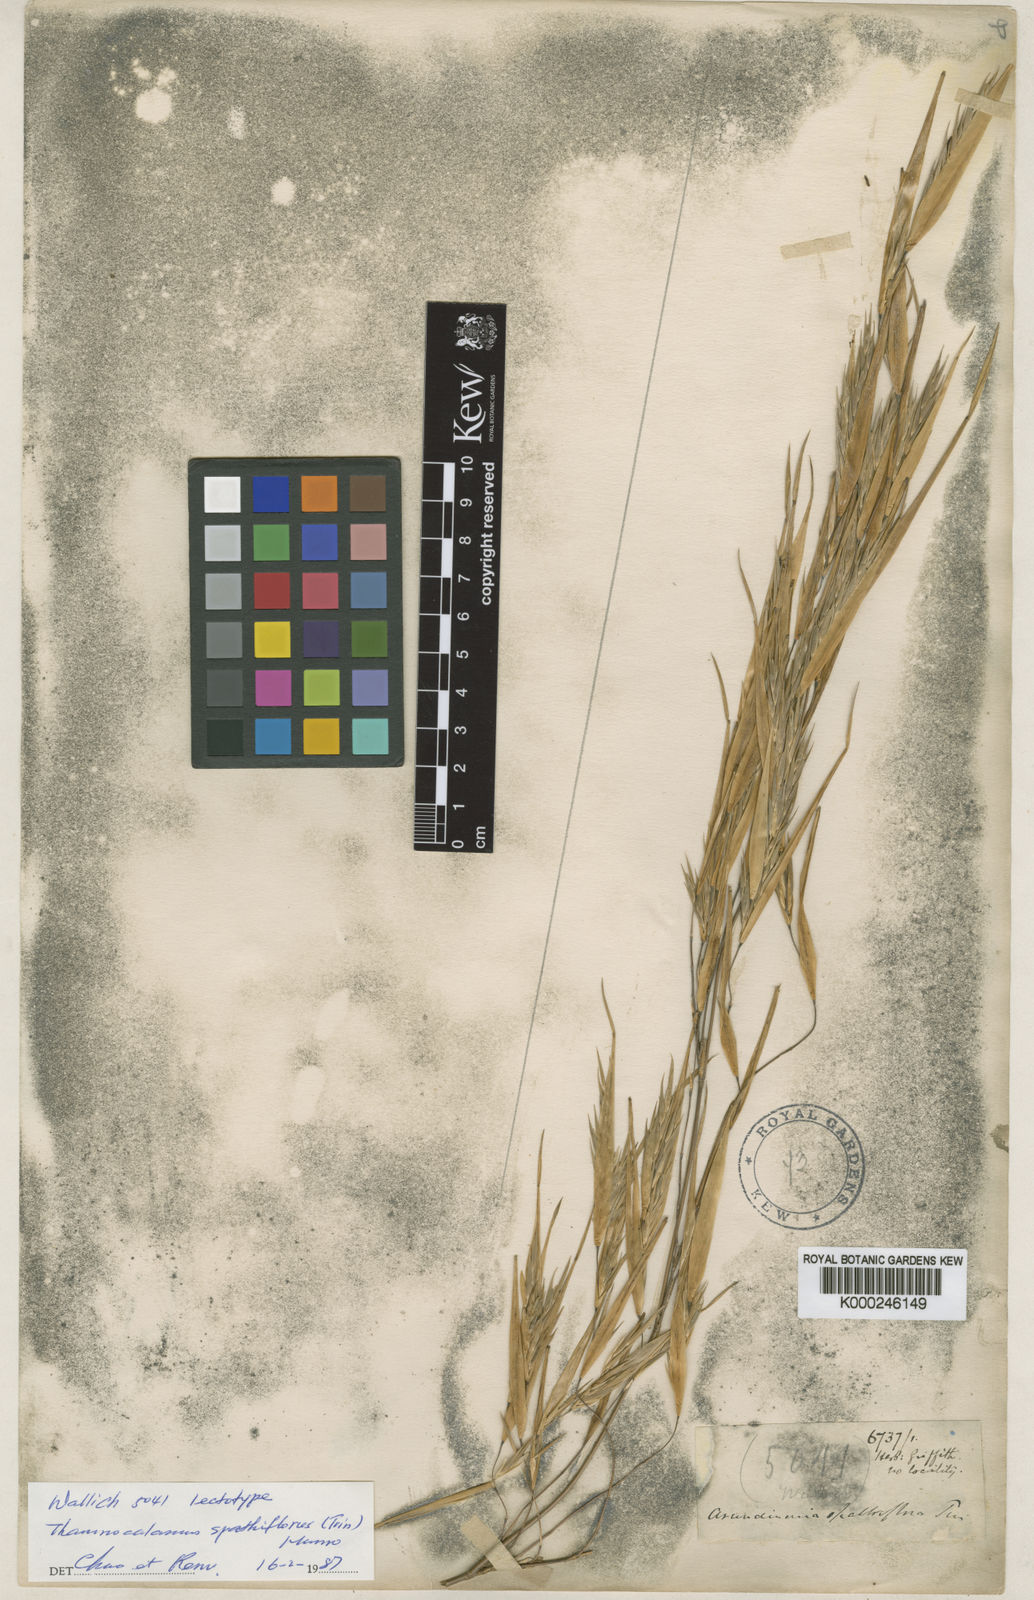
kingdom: Plantae
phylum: Tracheophyta
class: Liliopsida
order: Poales
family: Poaceae
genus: Thamnocalamus
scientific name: Thamnocalamus spathiflorus
